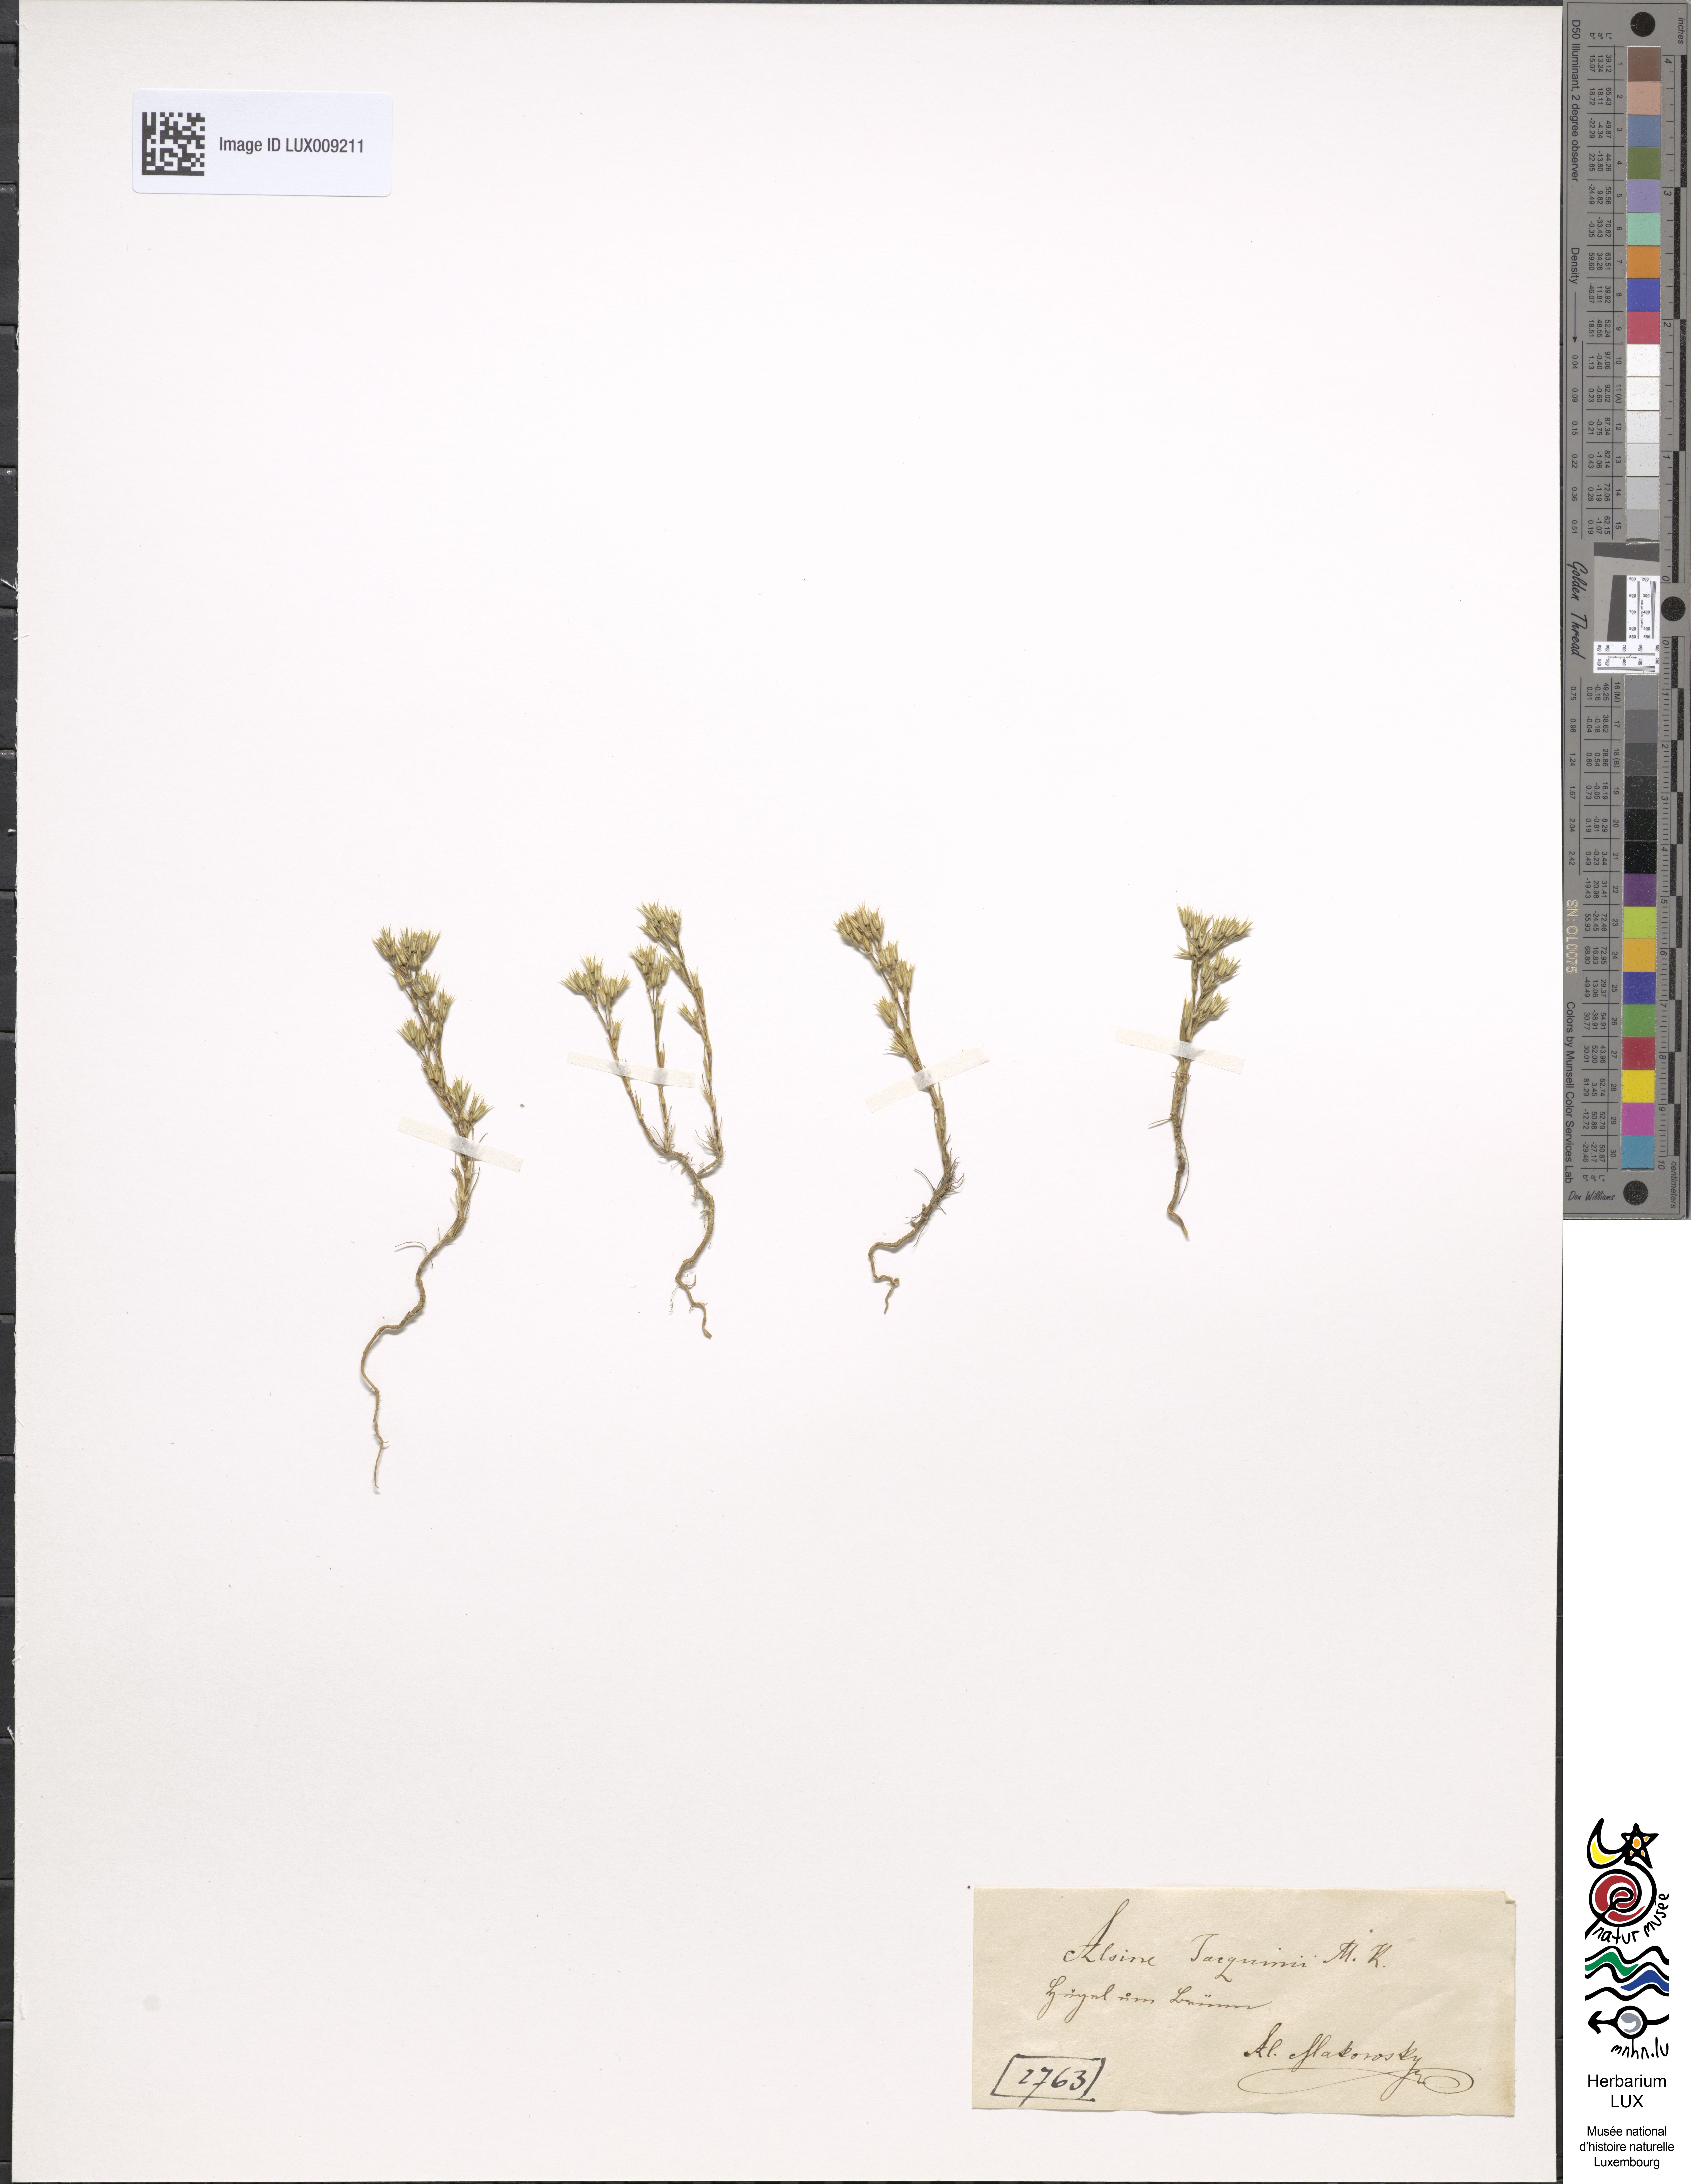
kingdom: Plantae
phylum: Tracheophyta
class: Magnoliopsida
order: Caryophyllales
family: Caryophyllaceae
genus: Minuartia
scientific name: Minuartia mucronata
